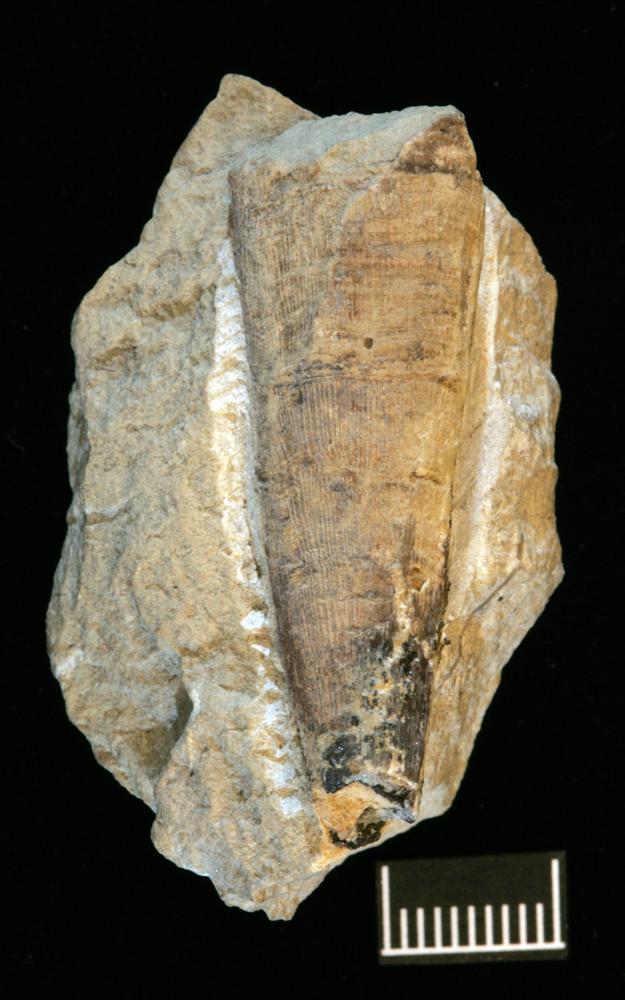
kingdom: Animalia
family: Sulcavitidae
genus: Dorsolinevitus
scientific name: Dorsolinevitus
